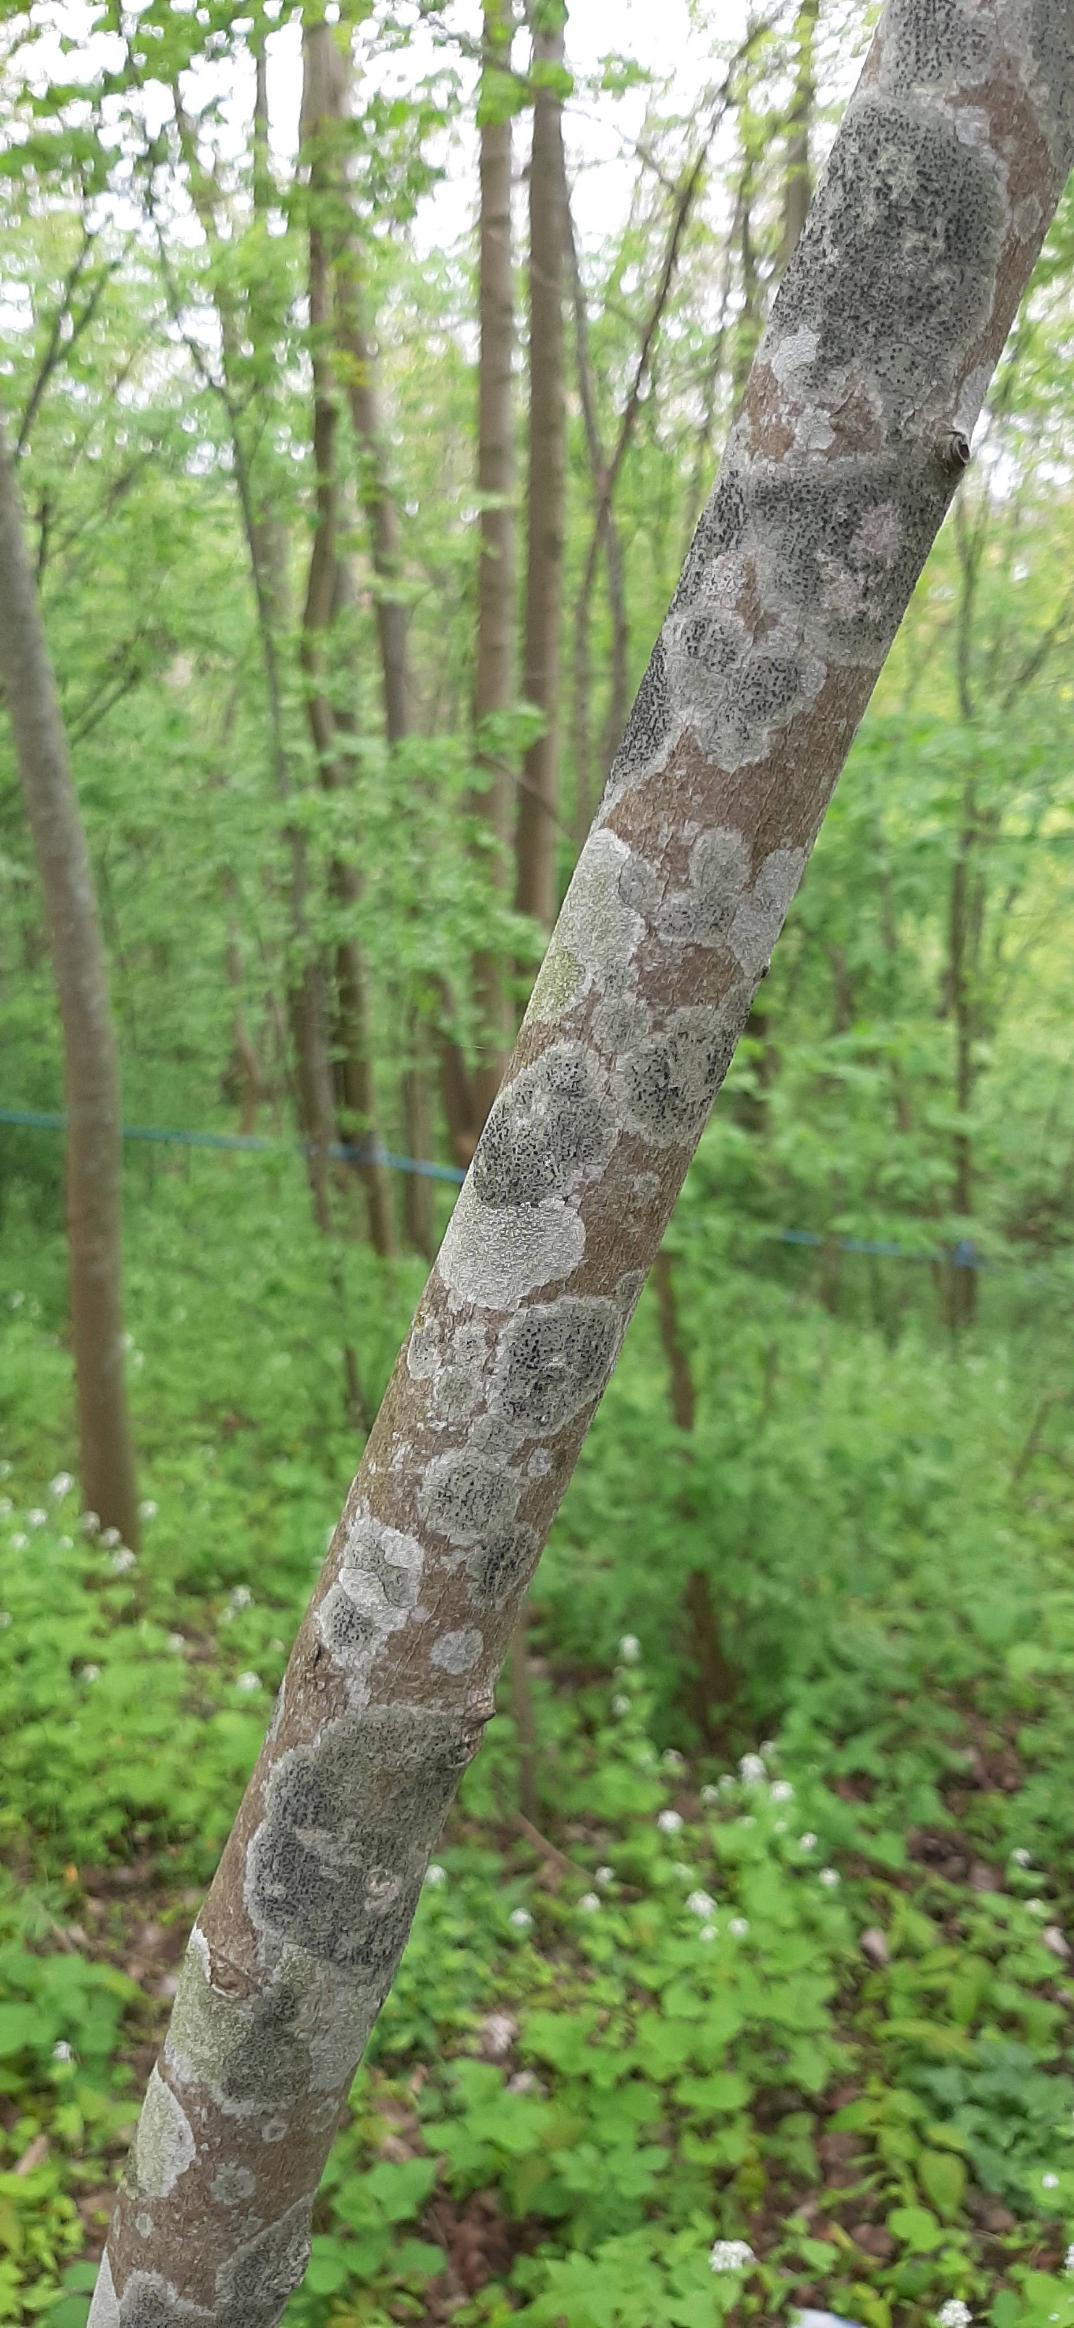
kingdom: Fungi
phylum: Ascomycota
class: Lecanoromycetes
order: Lecanorales
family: Lecanoraceae
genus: Lecidella
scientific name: Lecidella elaeochroma
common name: Grågrøn skivelav
